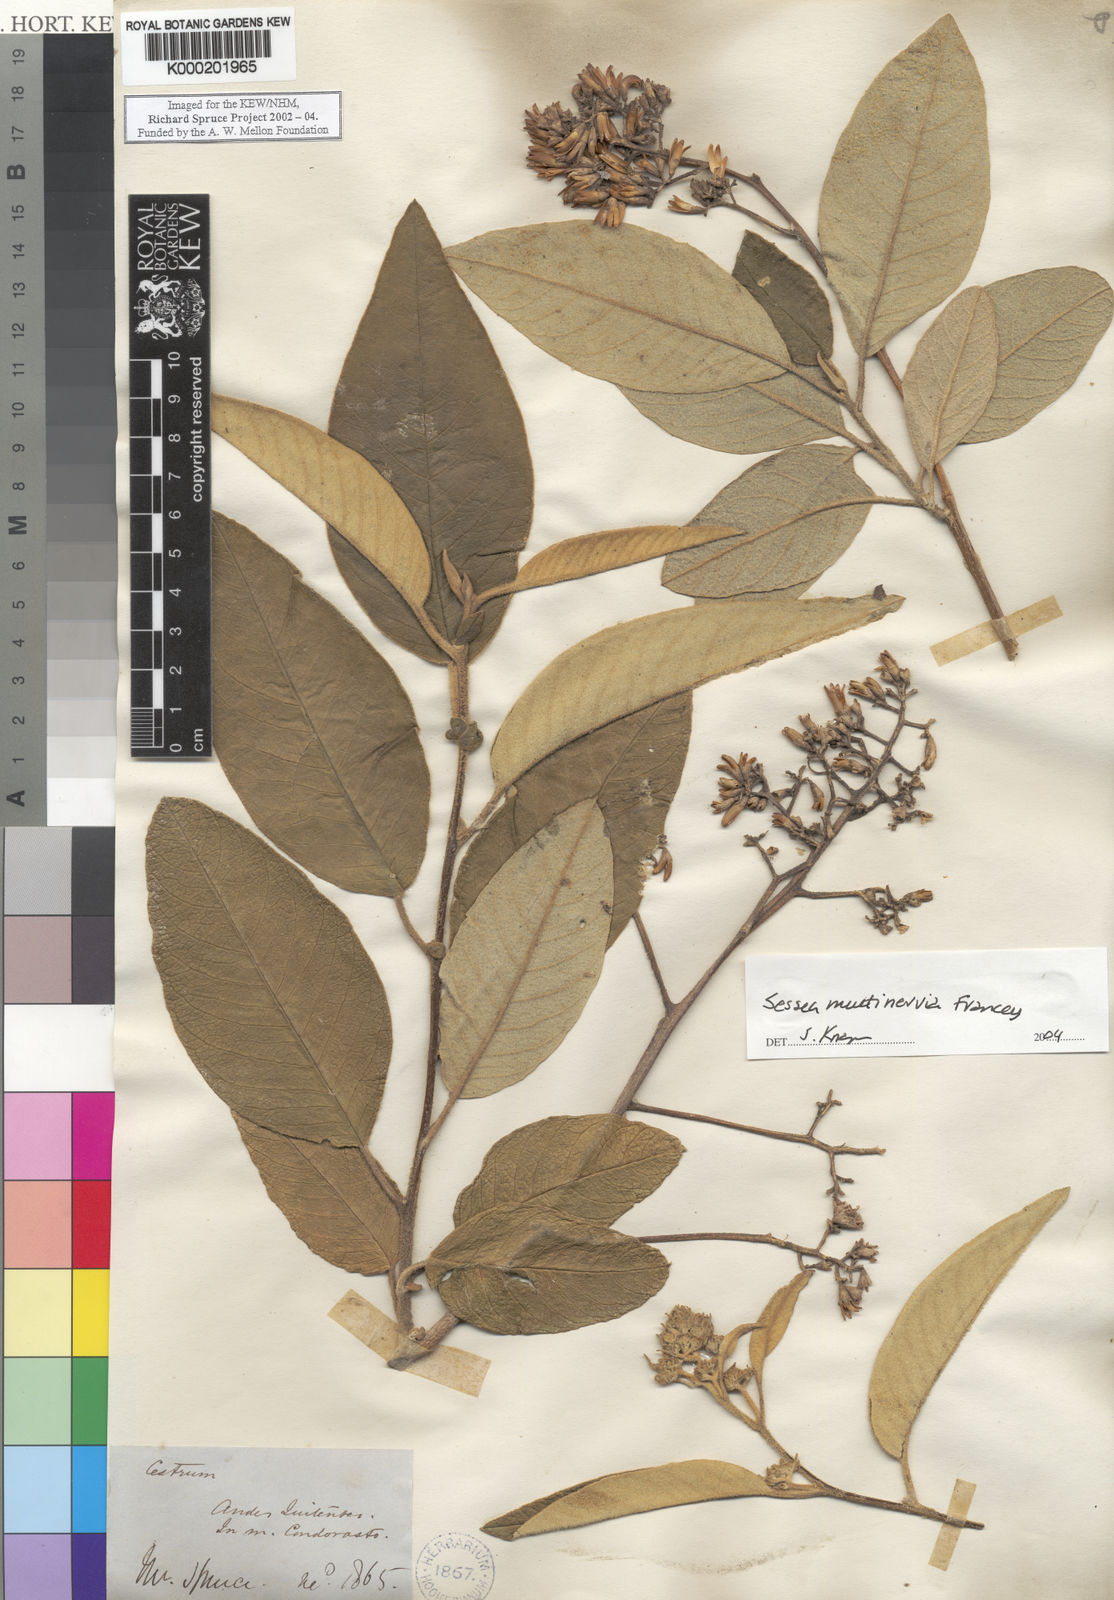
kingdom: Plantae
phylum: Tracheophyta
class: Magnoliopsida
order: Solanales
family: Solanaceae
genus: Sessea
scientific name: Sessea
